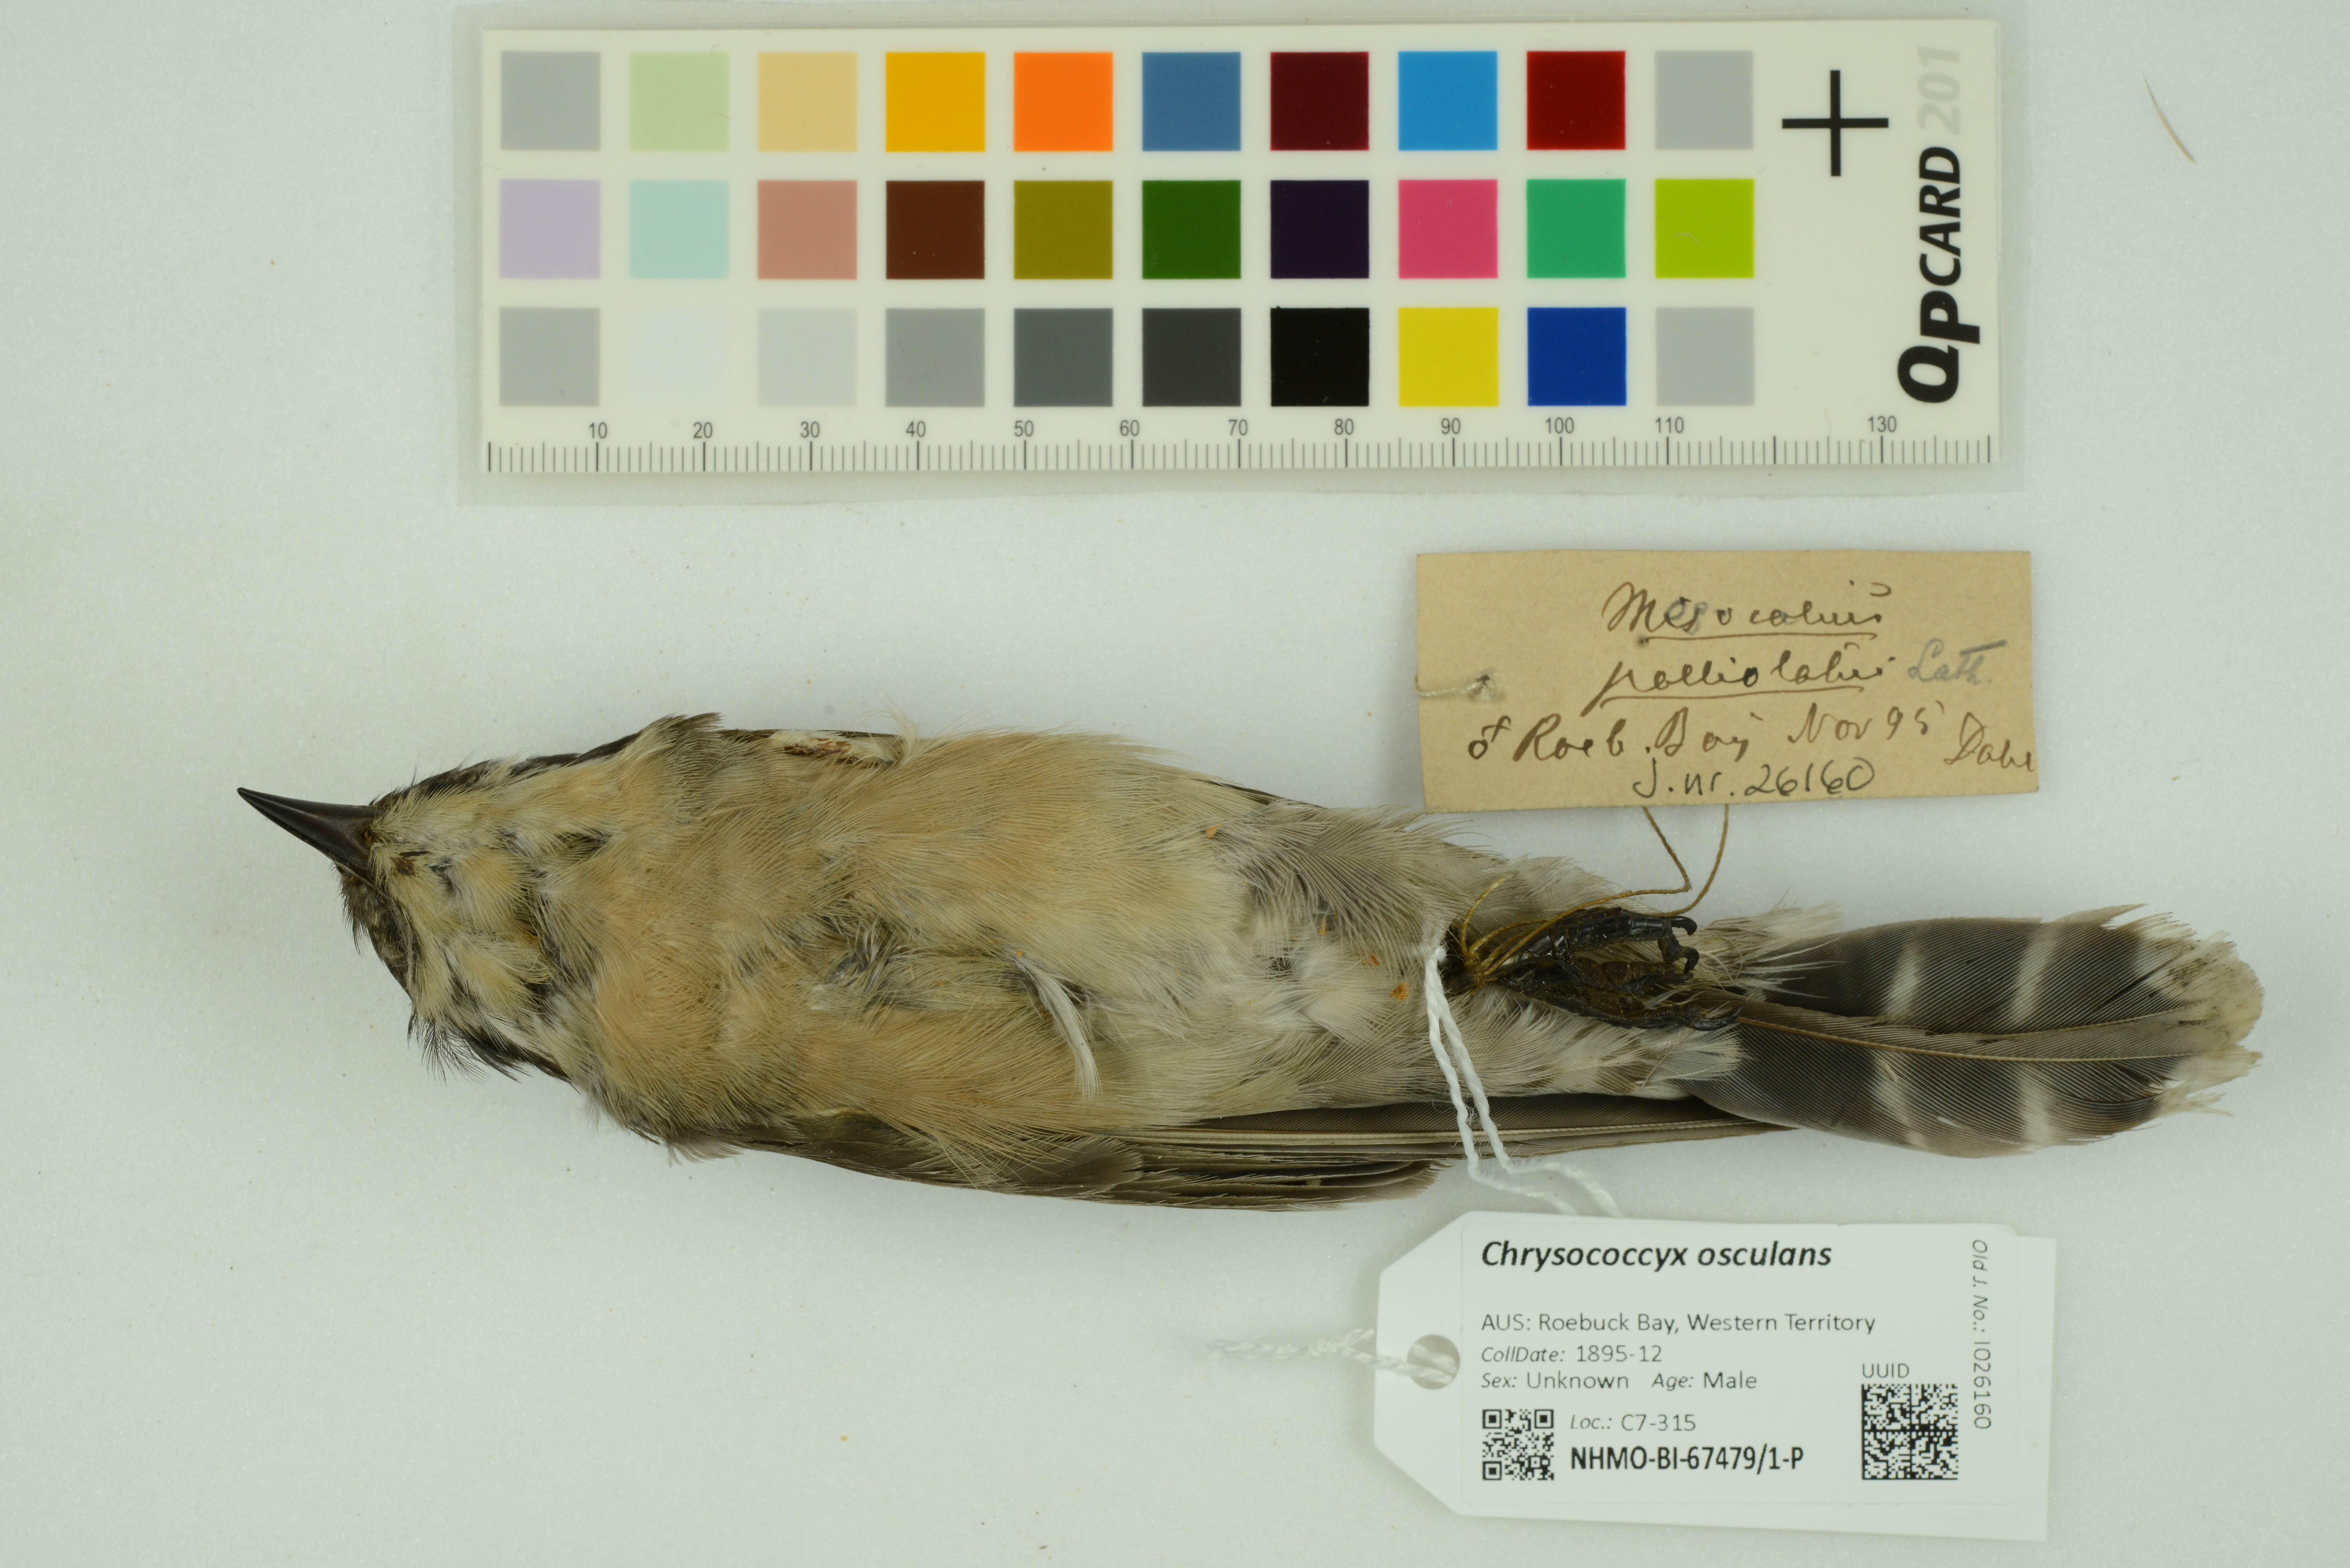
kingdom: Animalia
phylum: Chordata
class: Aves
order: Cuculiformes
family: Cuculidae
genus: Chrysococcyx
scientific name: Chrysococcyx osculans
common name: Black-eared cuckoo
